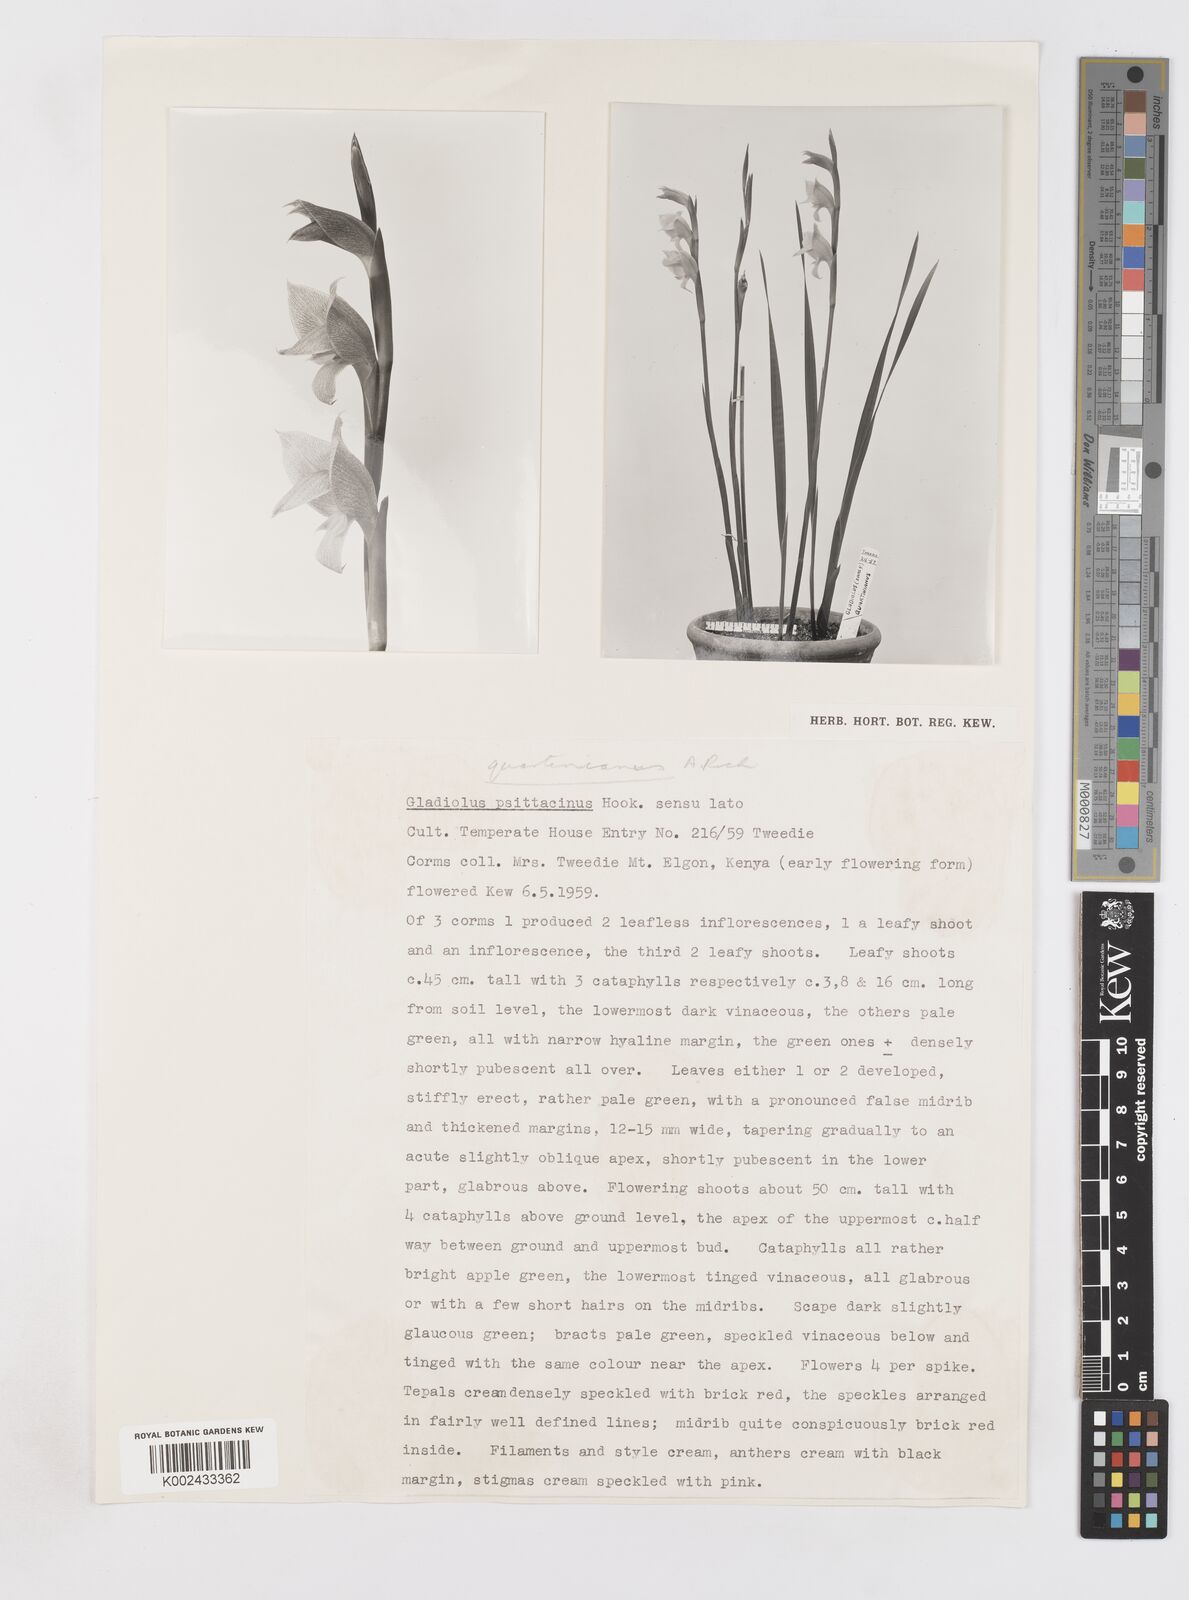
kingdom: Plantae
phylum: Tracheophyta
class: Liliopsida
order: Asparagales
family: Iridaceae
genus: Gladiolus
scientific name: Gladiolus dalenii
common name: Cornflag
